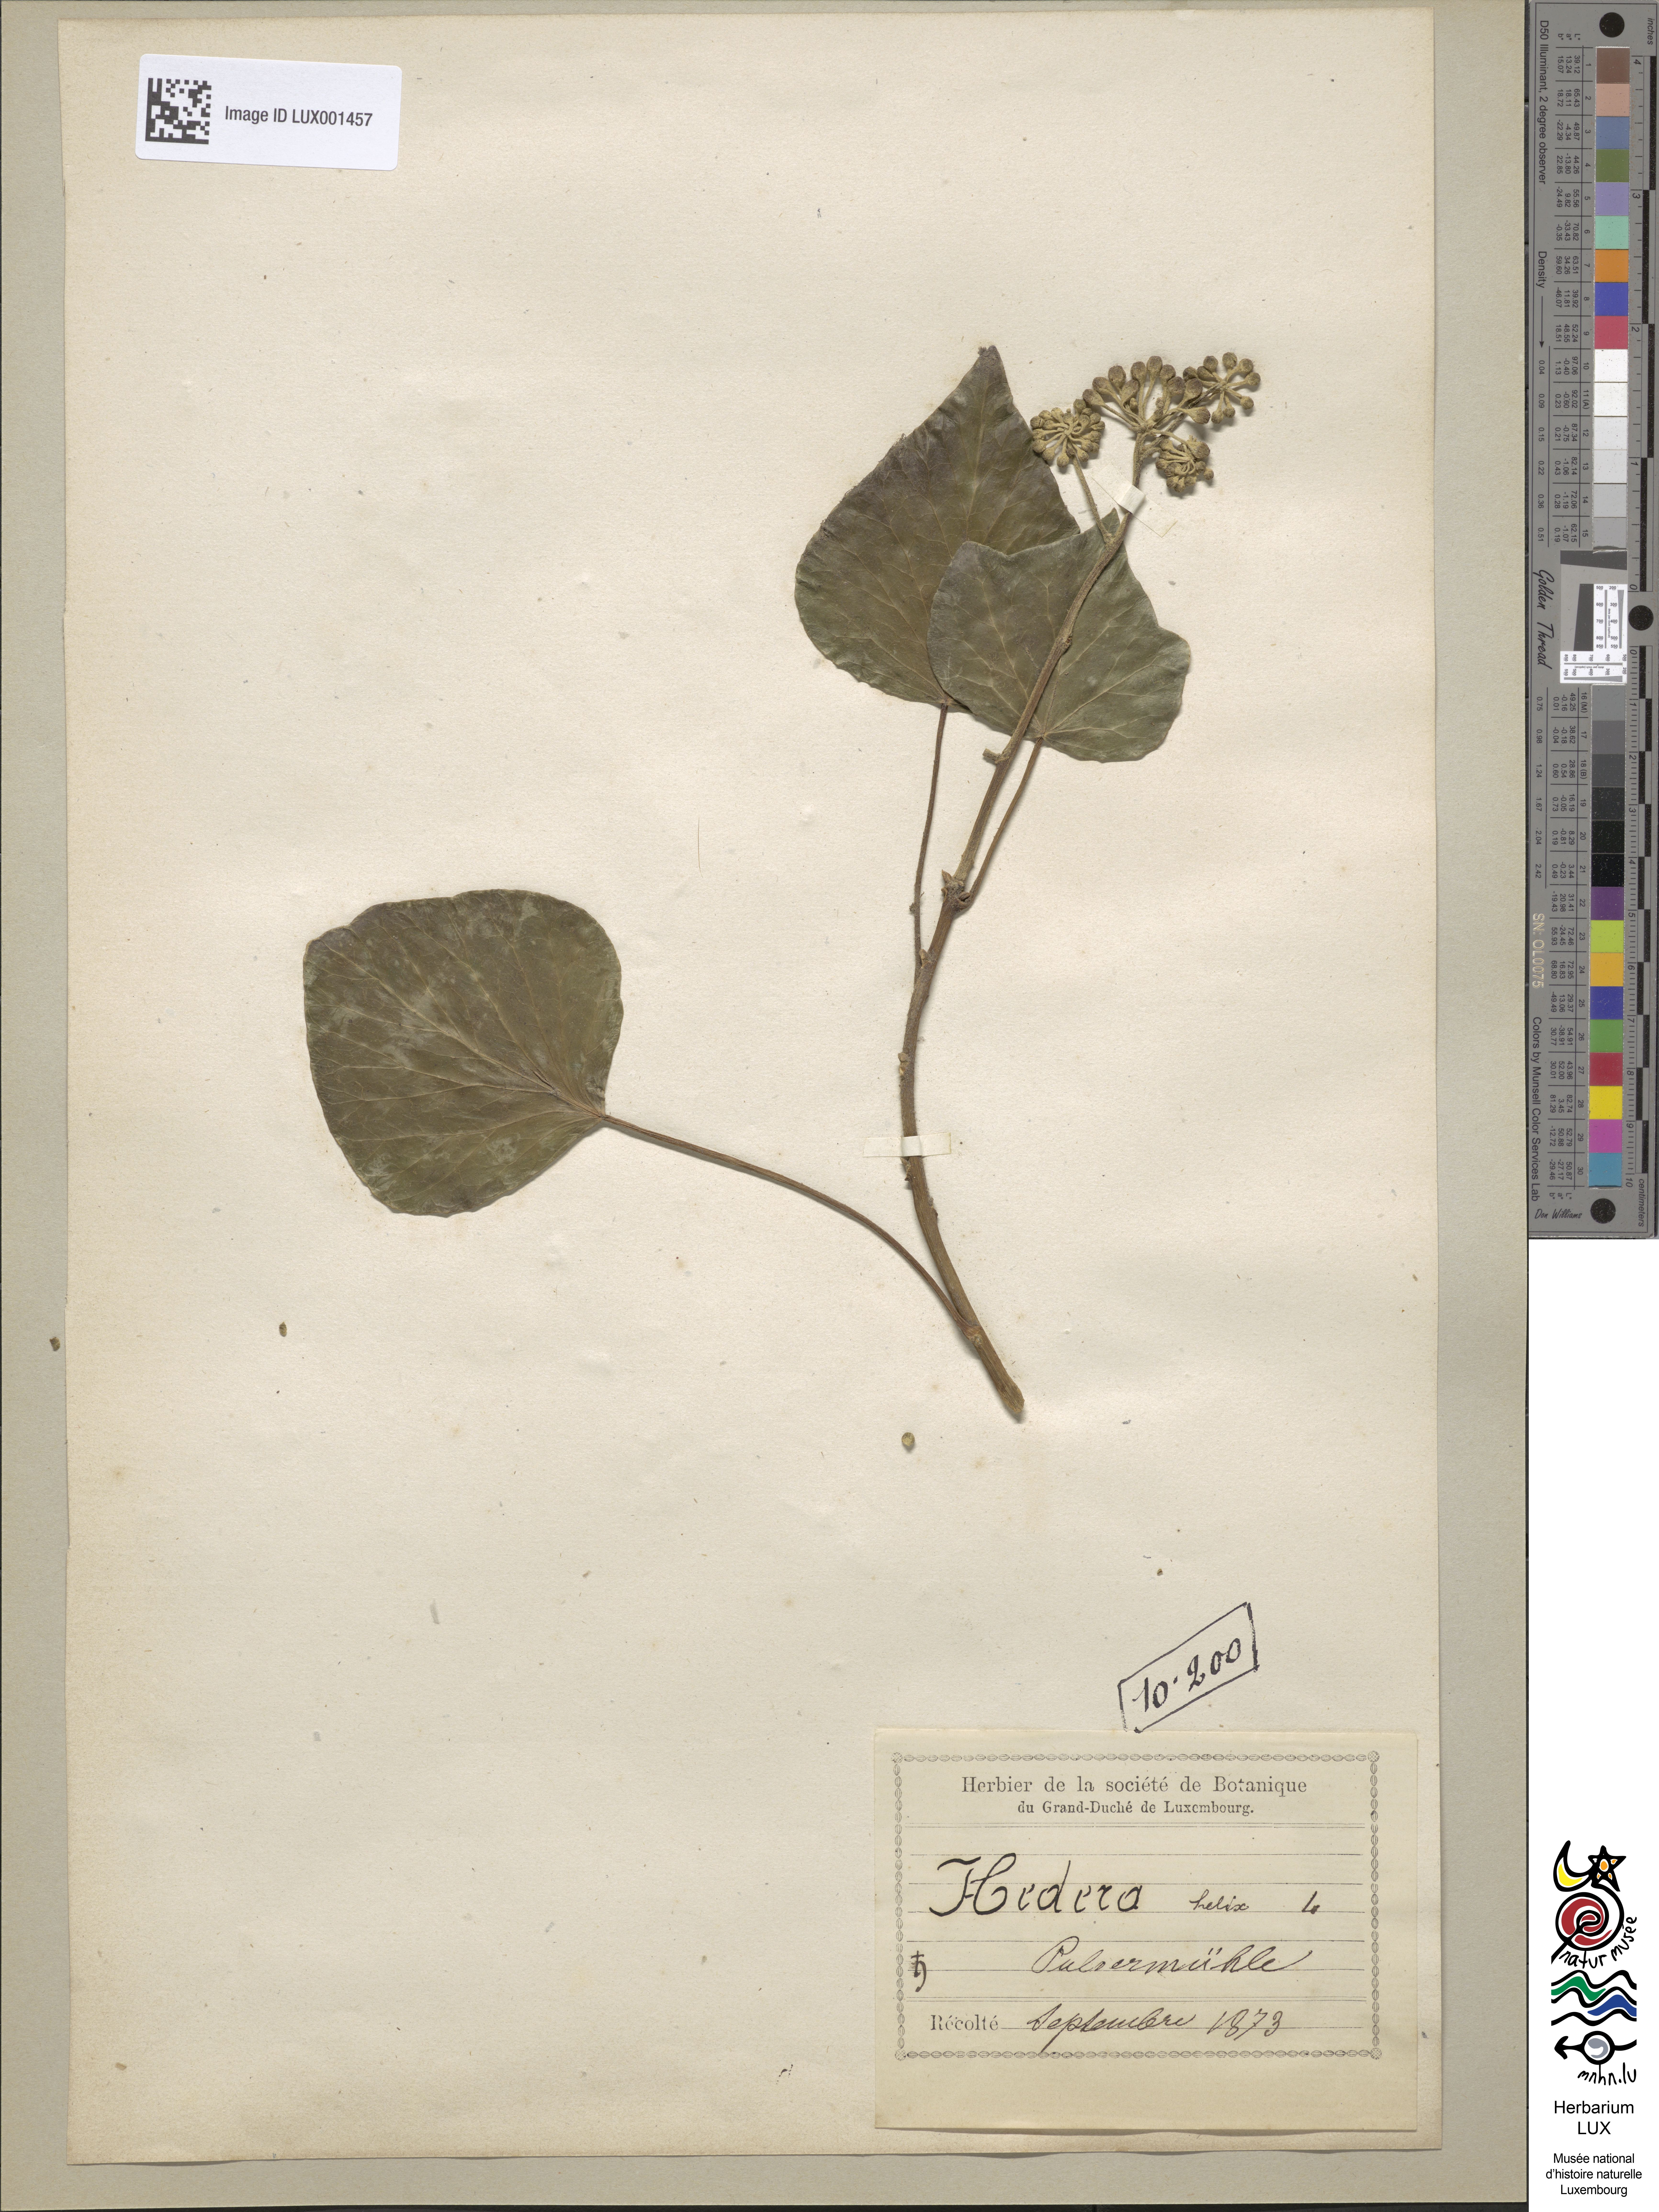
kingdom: Plantae
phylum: Tracheophyta
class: Magnoliopsida
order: Apiales
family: Araliaceae
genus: Hedera
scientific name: Hedera helix
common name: Ivy
